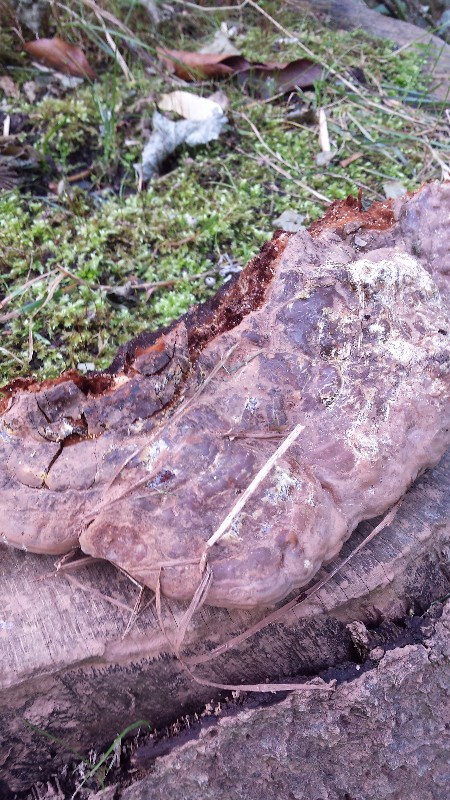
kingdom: Fungi
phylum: Basidiomycota
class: Agaricomycetes
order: Polyporales
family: Polyporaceae
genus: Ganoderma
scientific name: Ganoderma pfeifferi
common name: kobberrød lakporesvamp
